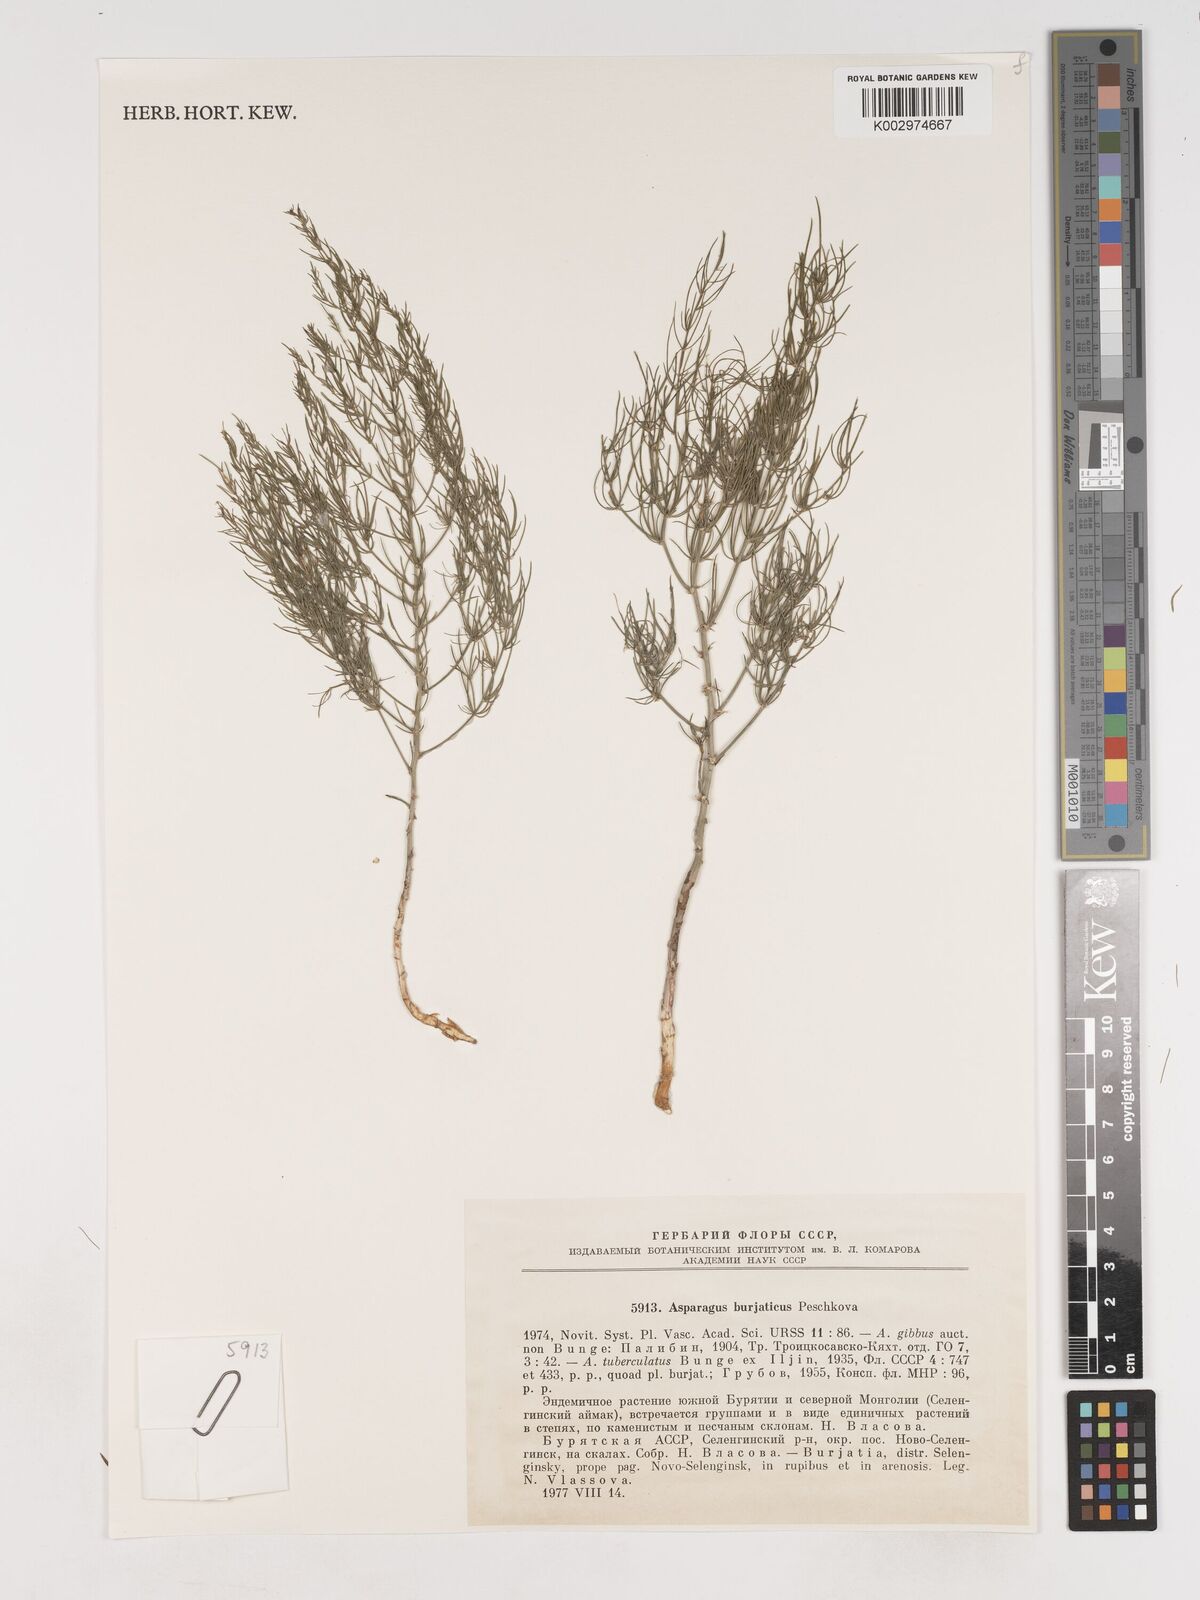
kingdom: Plantae
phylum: Tracheophyta
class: Liliopsida
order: Asparagales
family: Asparagaceae
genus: Asparagus
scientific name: Asparagus burjaticus
